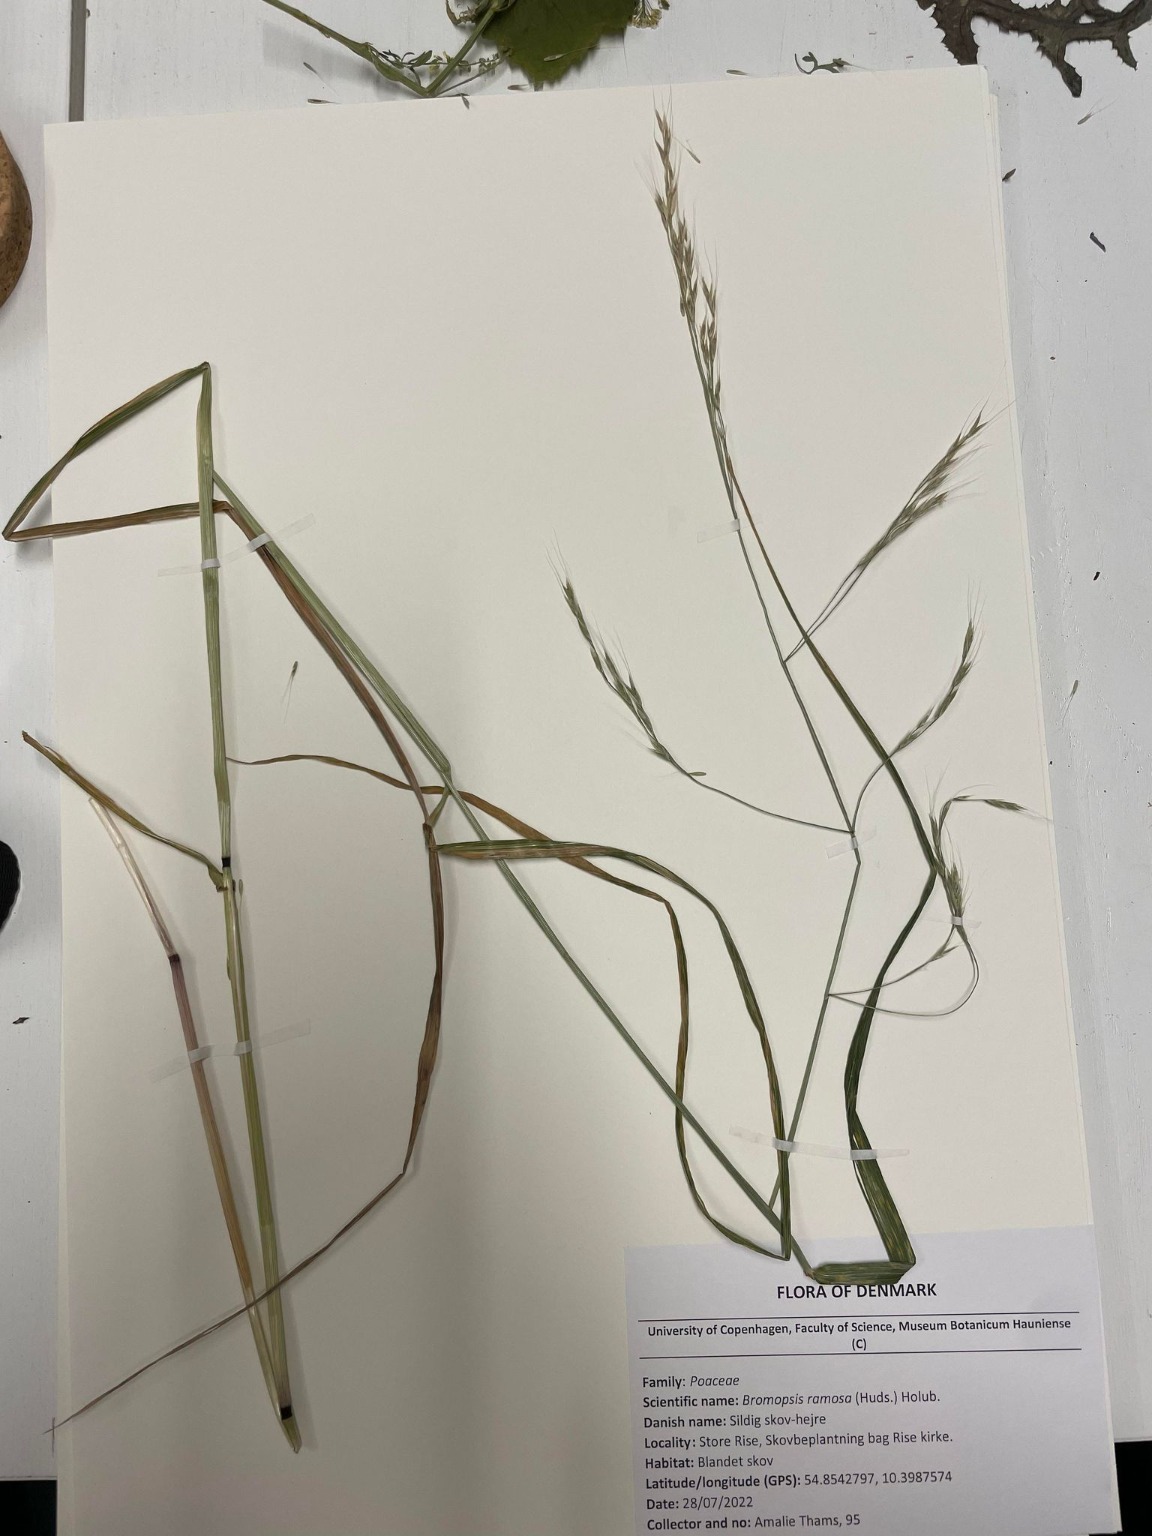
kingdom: Plantae
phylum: Tracheophyta
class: Liliopsida
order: Poales
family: Poaceae
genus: Lolium
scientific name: Lolium giganteum
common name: Kæmpe-svingel
